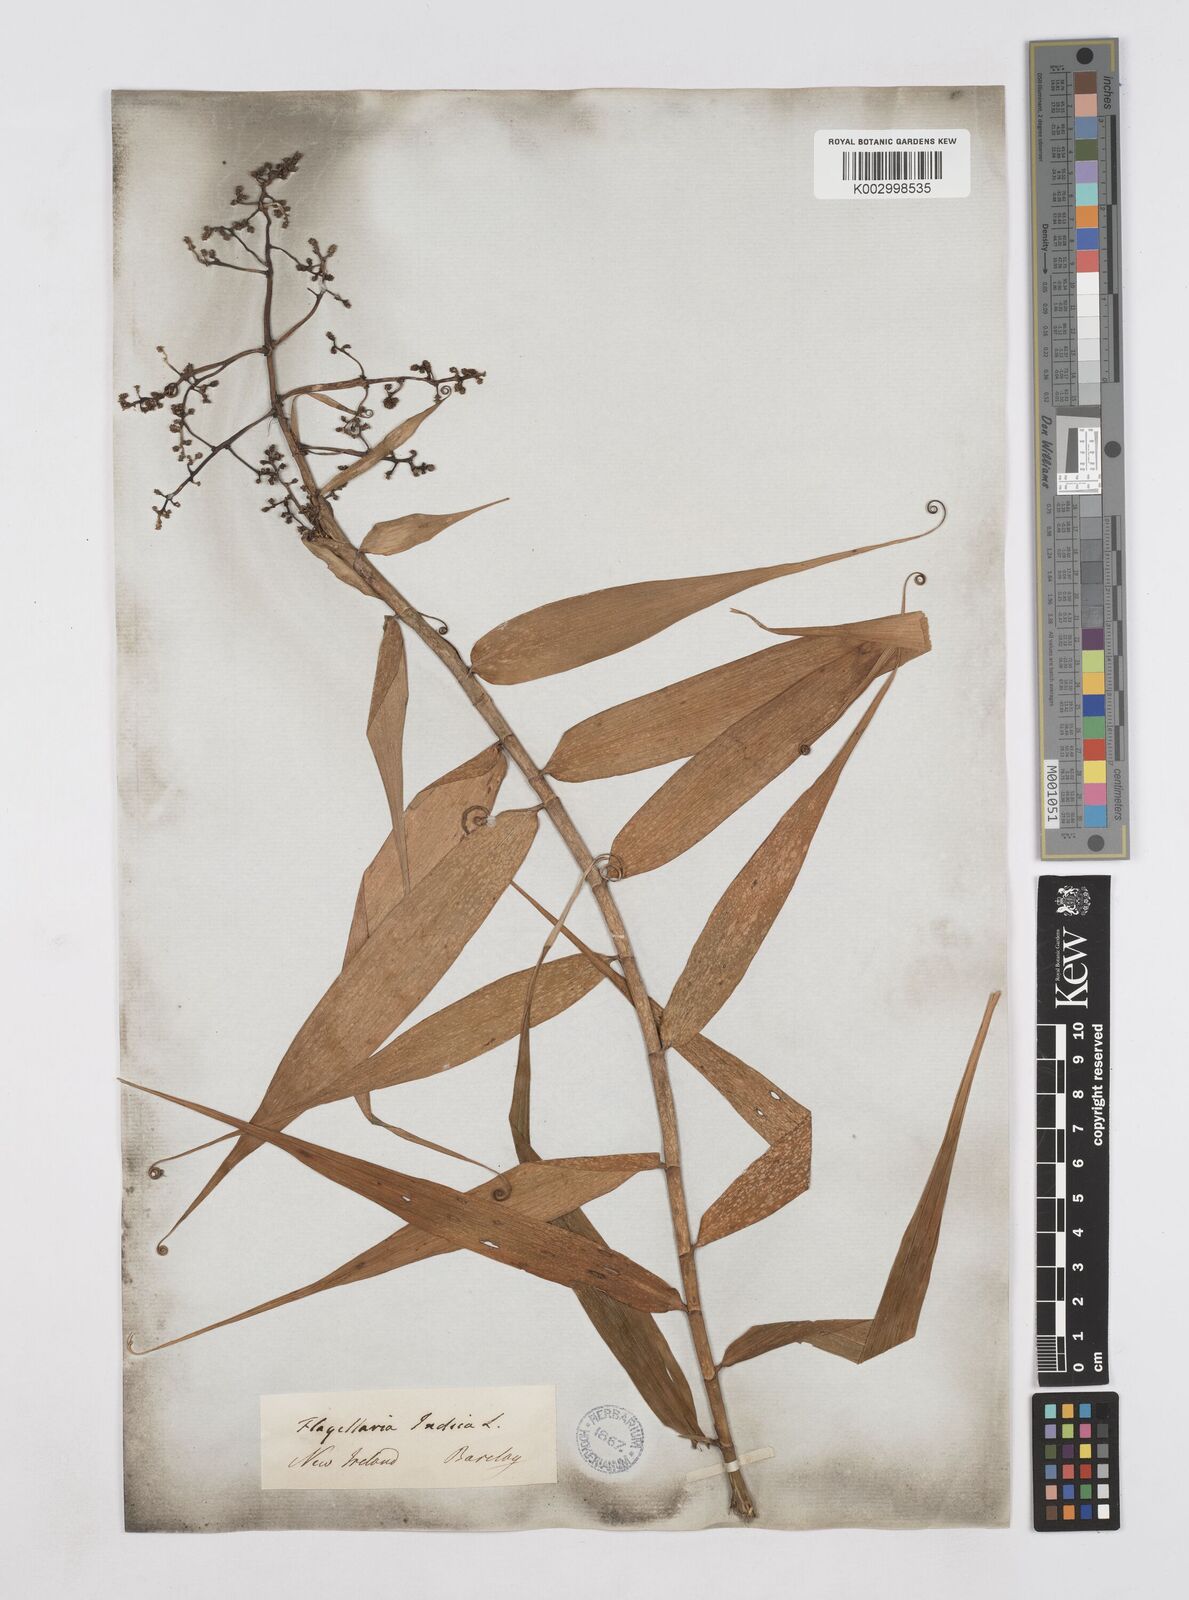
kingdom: Plantae
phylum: Tracheophyta
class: Liliopsida
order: Poales
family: Flagellariaceae
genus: Flagellaria
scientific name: Flagellaria indica
